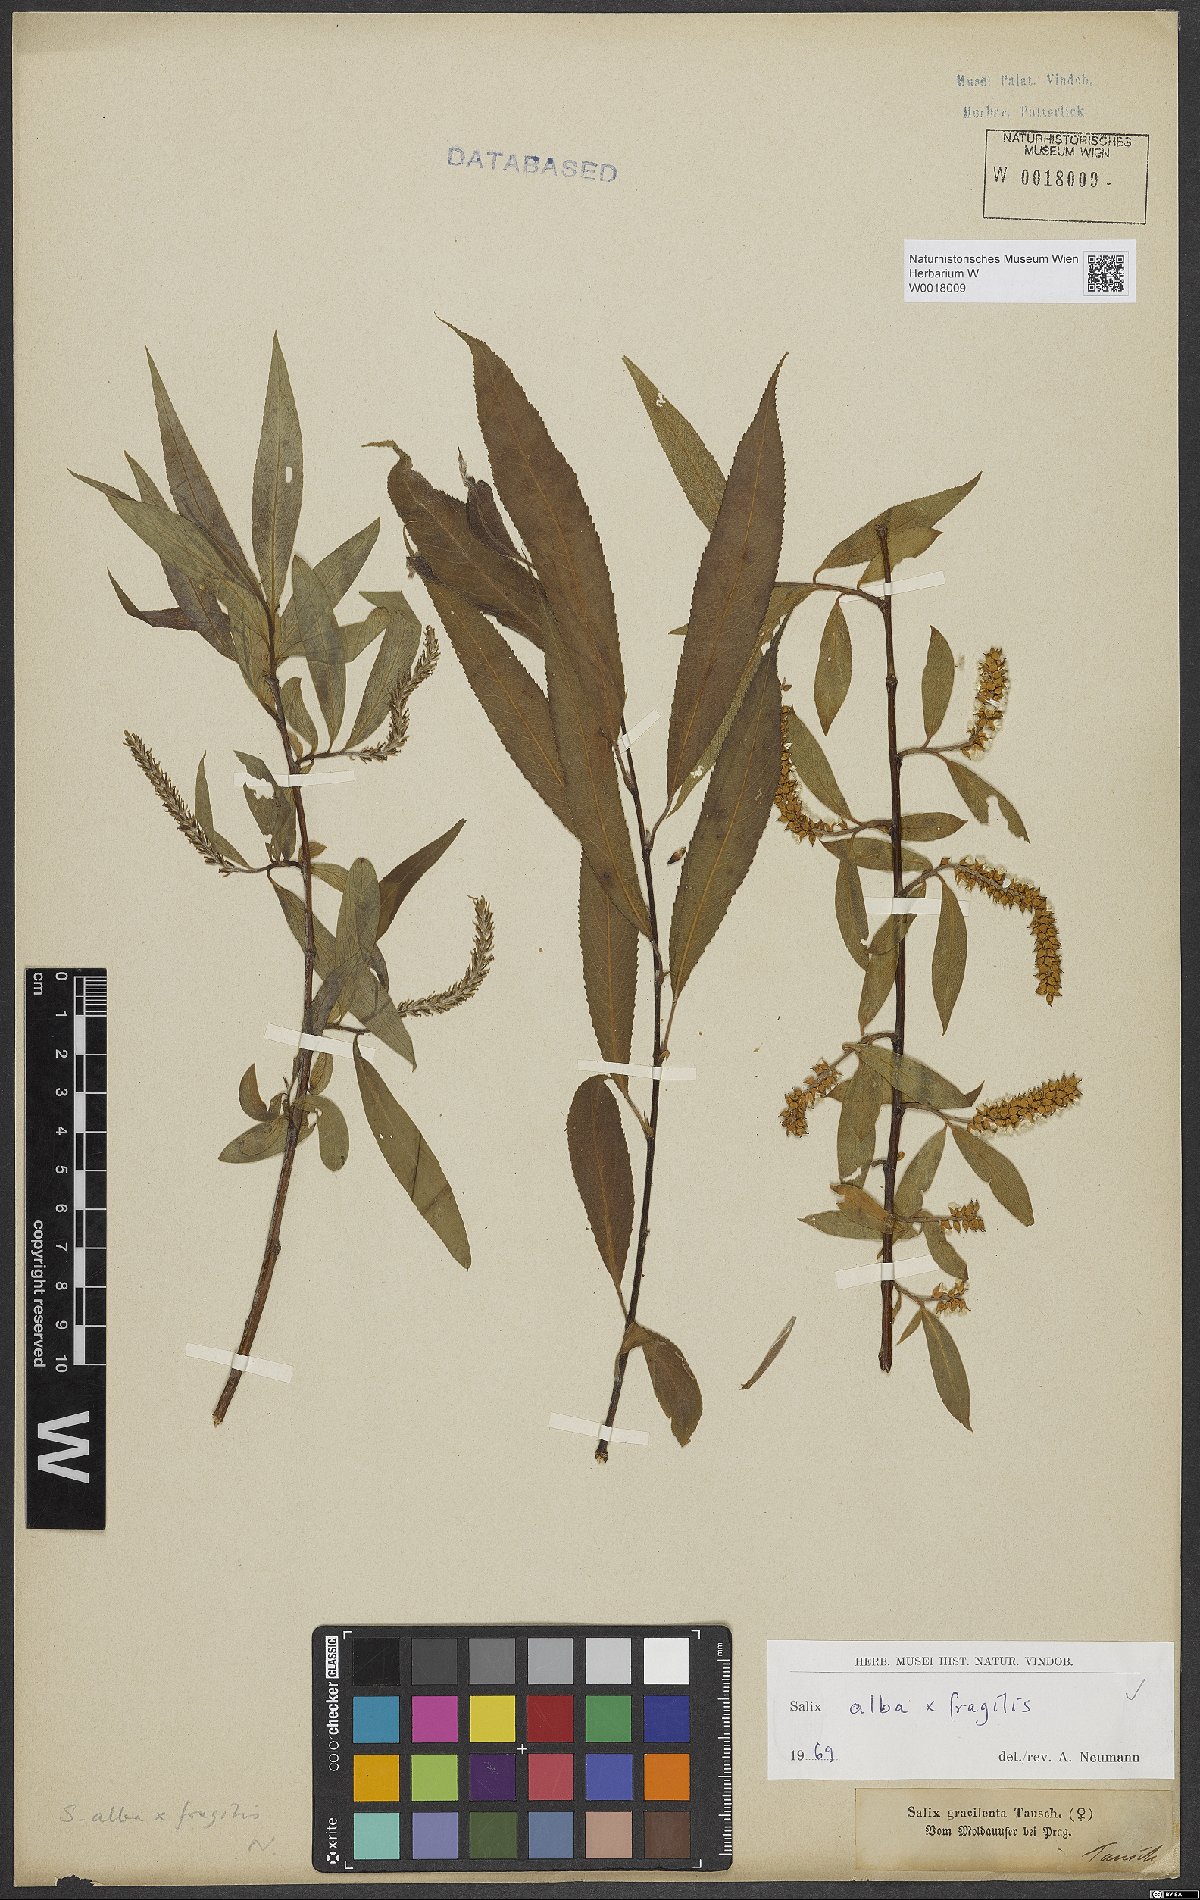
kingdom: Plantae
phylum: Tracheophyta
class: Magnoliopsida
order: Malpighiales
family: Salicaceae
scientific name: Salicaceae
